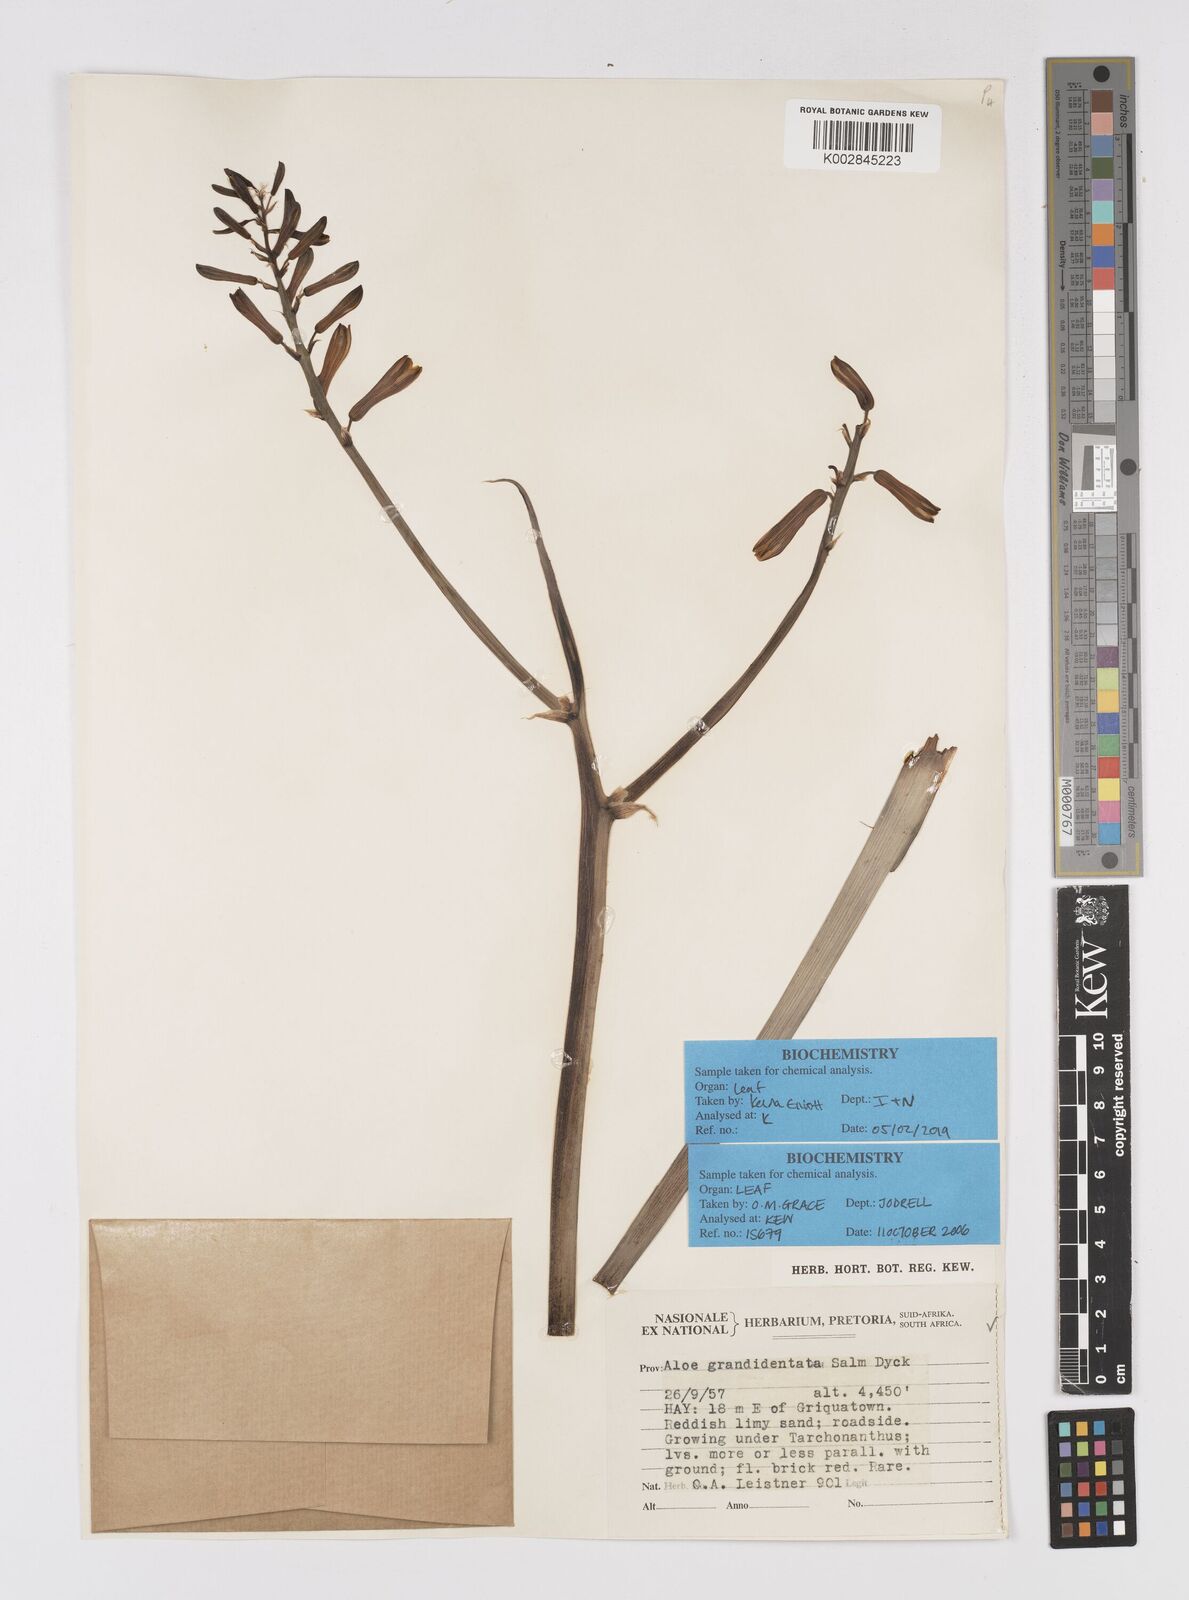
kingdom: Plantae
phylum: Tracheophyta
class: Liliopsida
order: Asparagales
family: Asphodelaceae
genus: Aloe
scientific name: Aloe grandidentata
